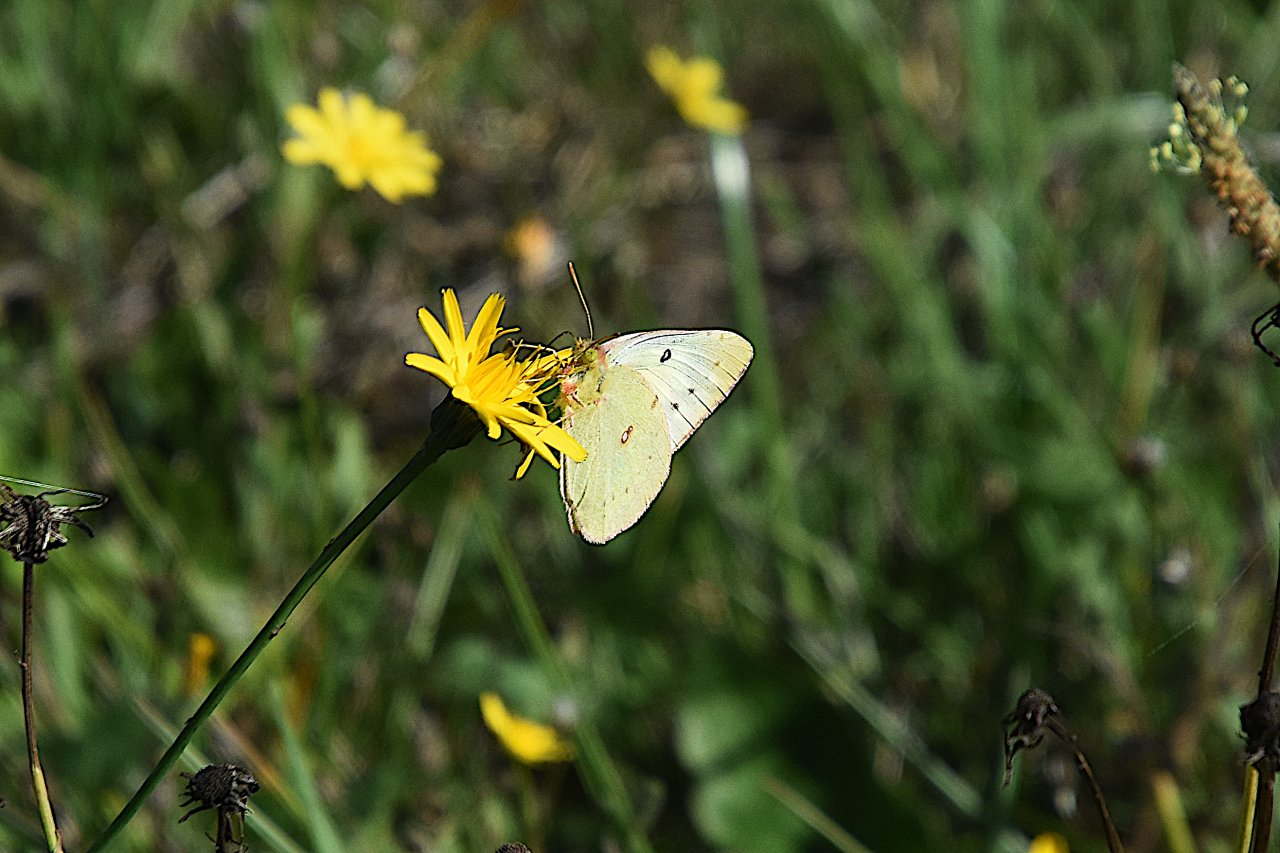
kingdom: Animalia
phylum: Arthropoda
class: Insecta
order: Lepidoptera
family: Pieridae
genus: Colias
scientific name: Colias eurytheme
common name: Orange Sulphur
